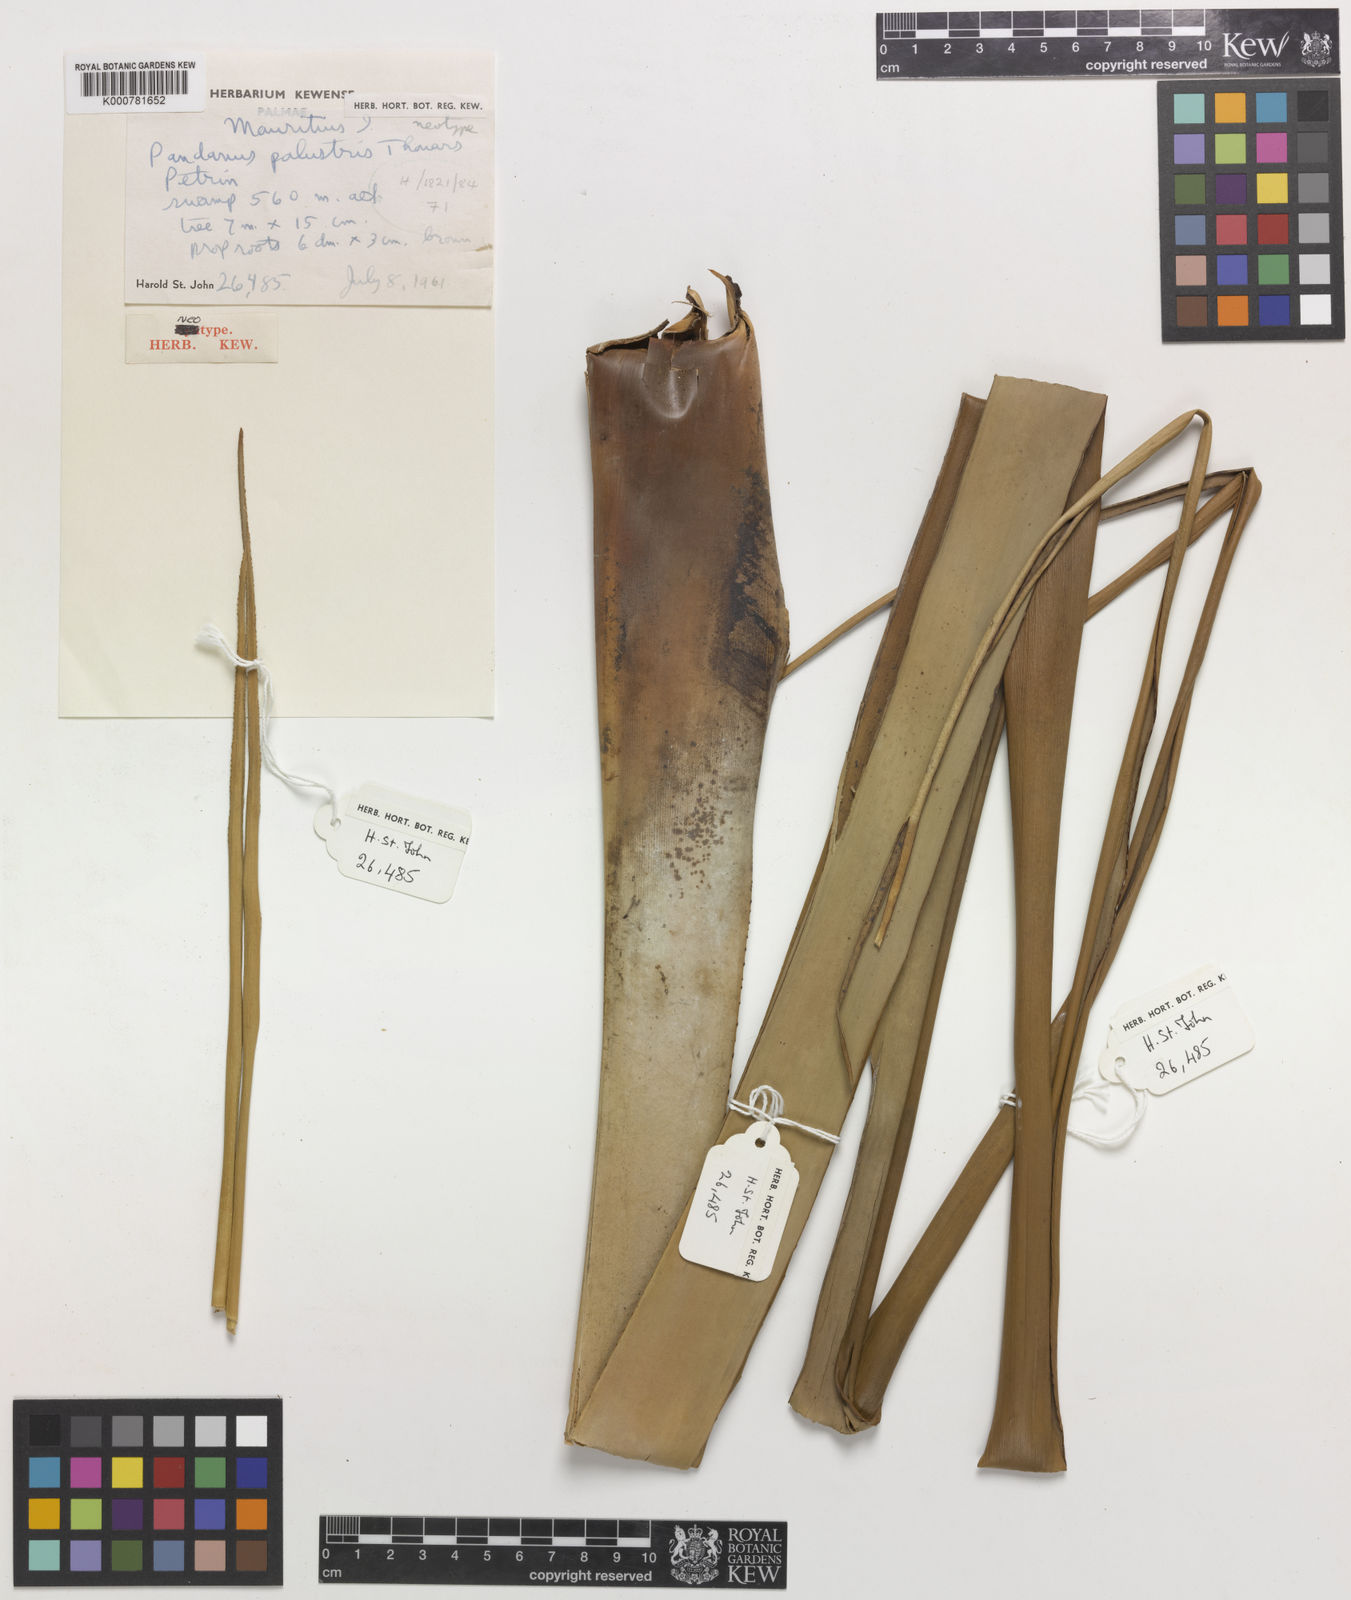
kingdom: Plantae
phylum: Tracheophyta
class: Liliopsida
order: Pandanales
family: Pandanaceae
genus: Pandanus
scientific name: Pandanus palustris
